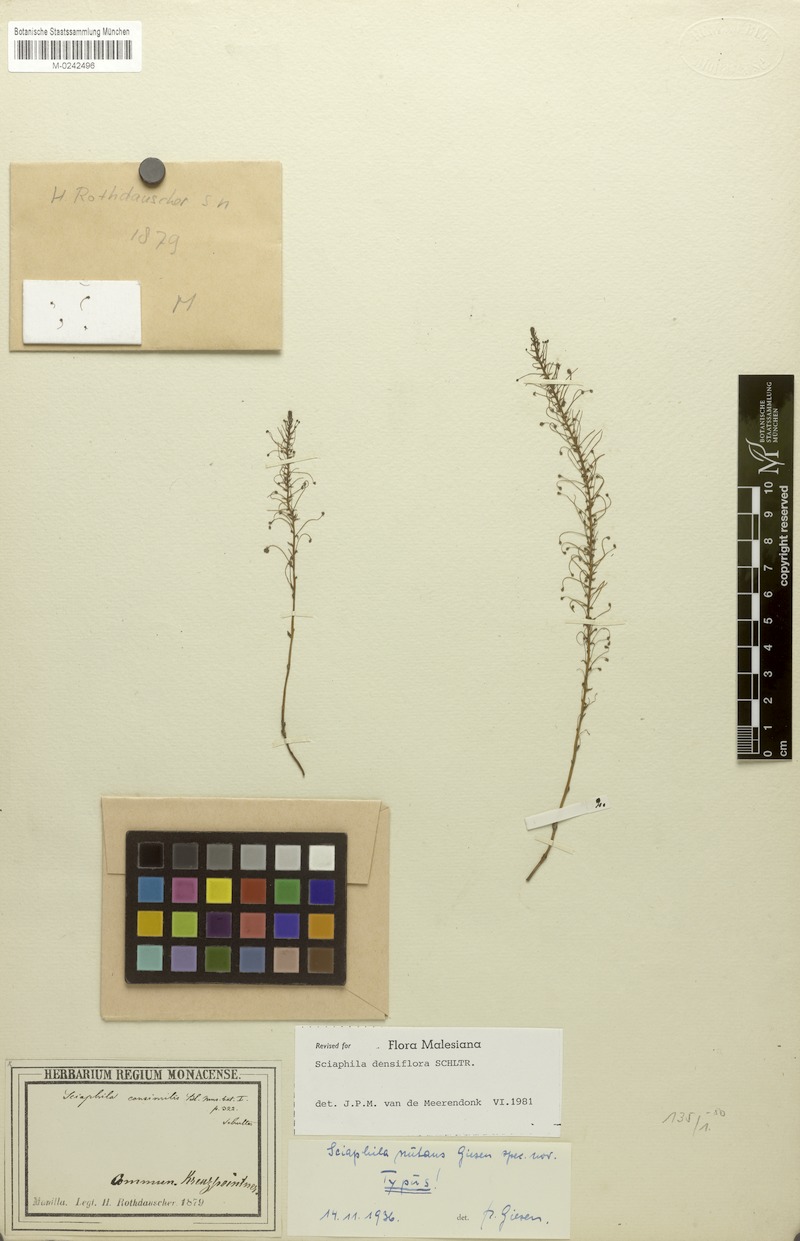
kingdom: Plantae
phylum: Tracheophyta
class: Liliopsida
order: Pandanales
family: Triuridaceae
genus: Sciaphila
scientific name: Sciaphila densiflora
